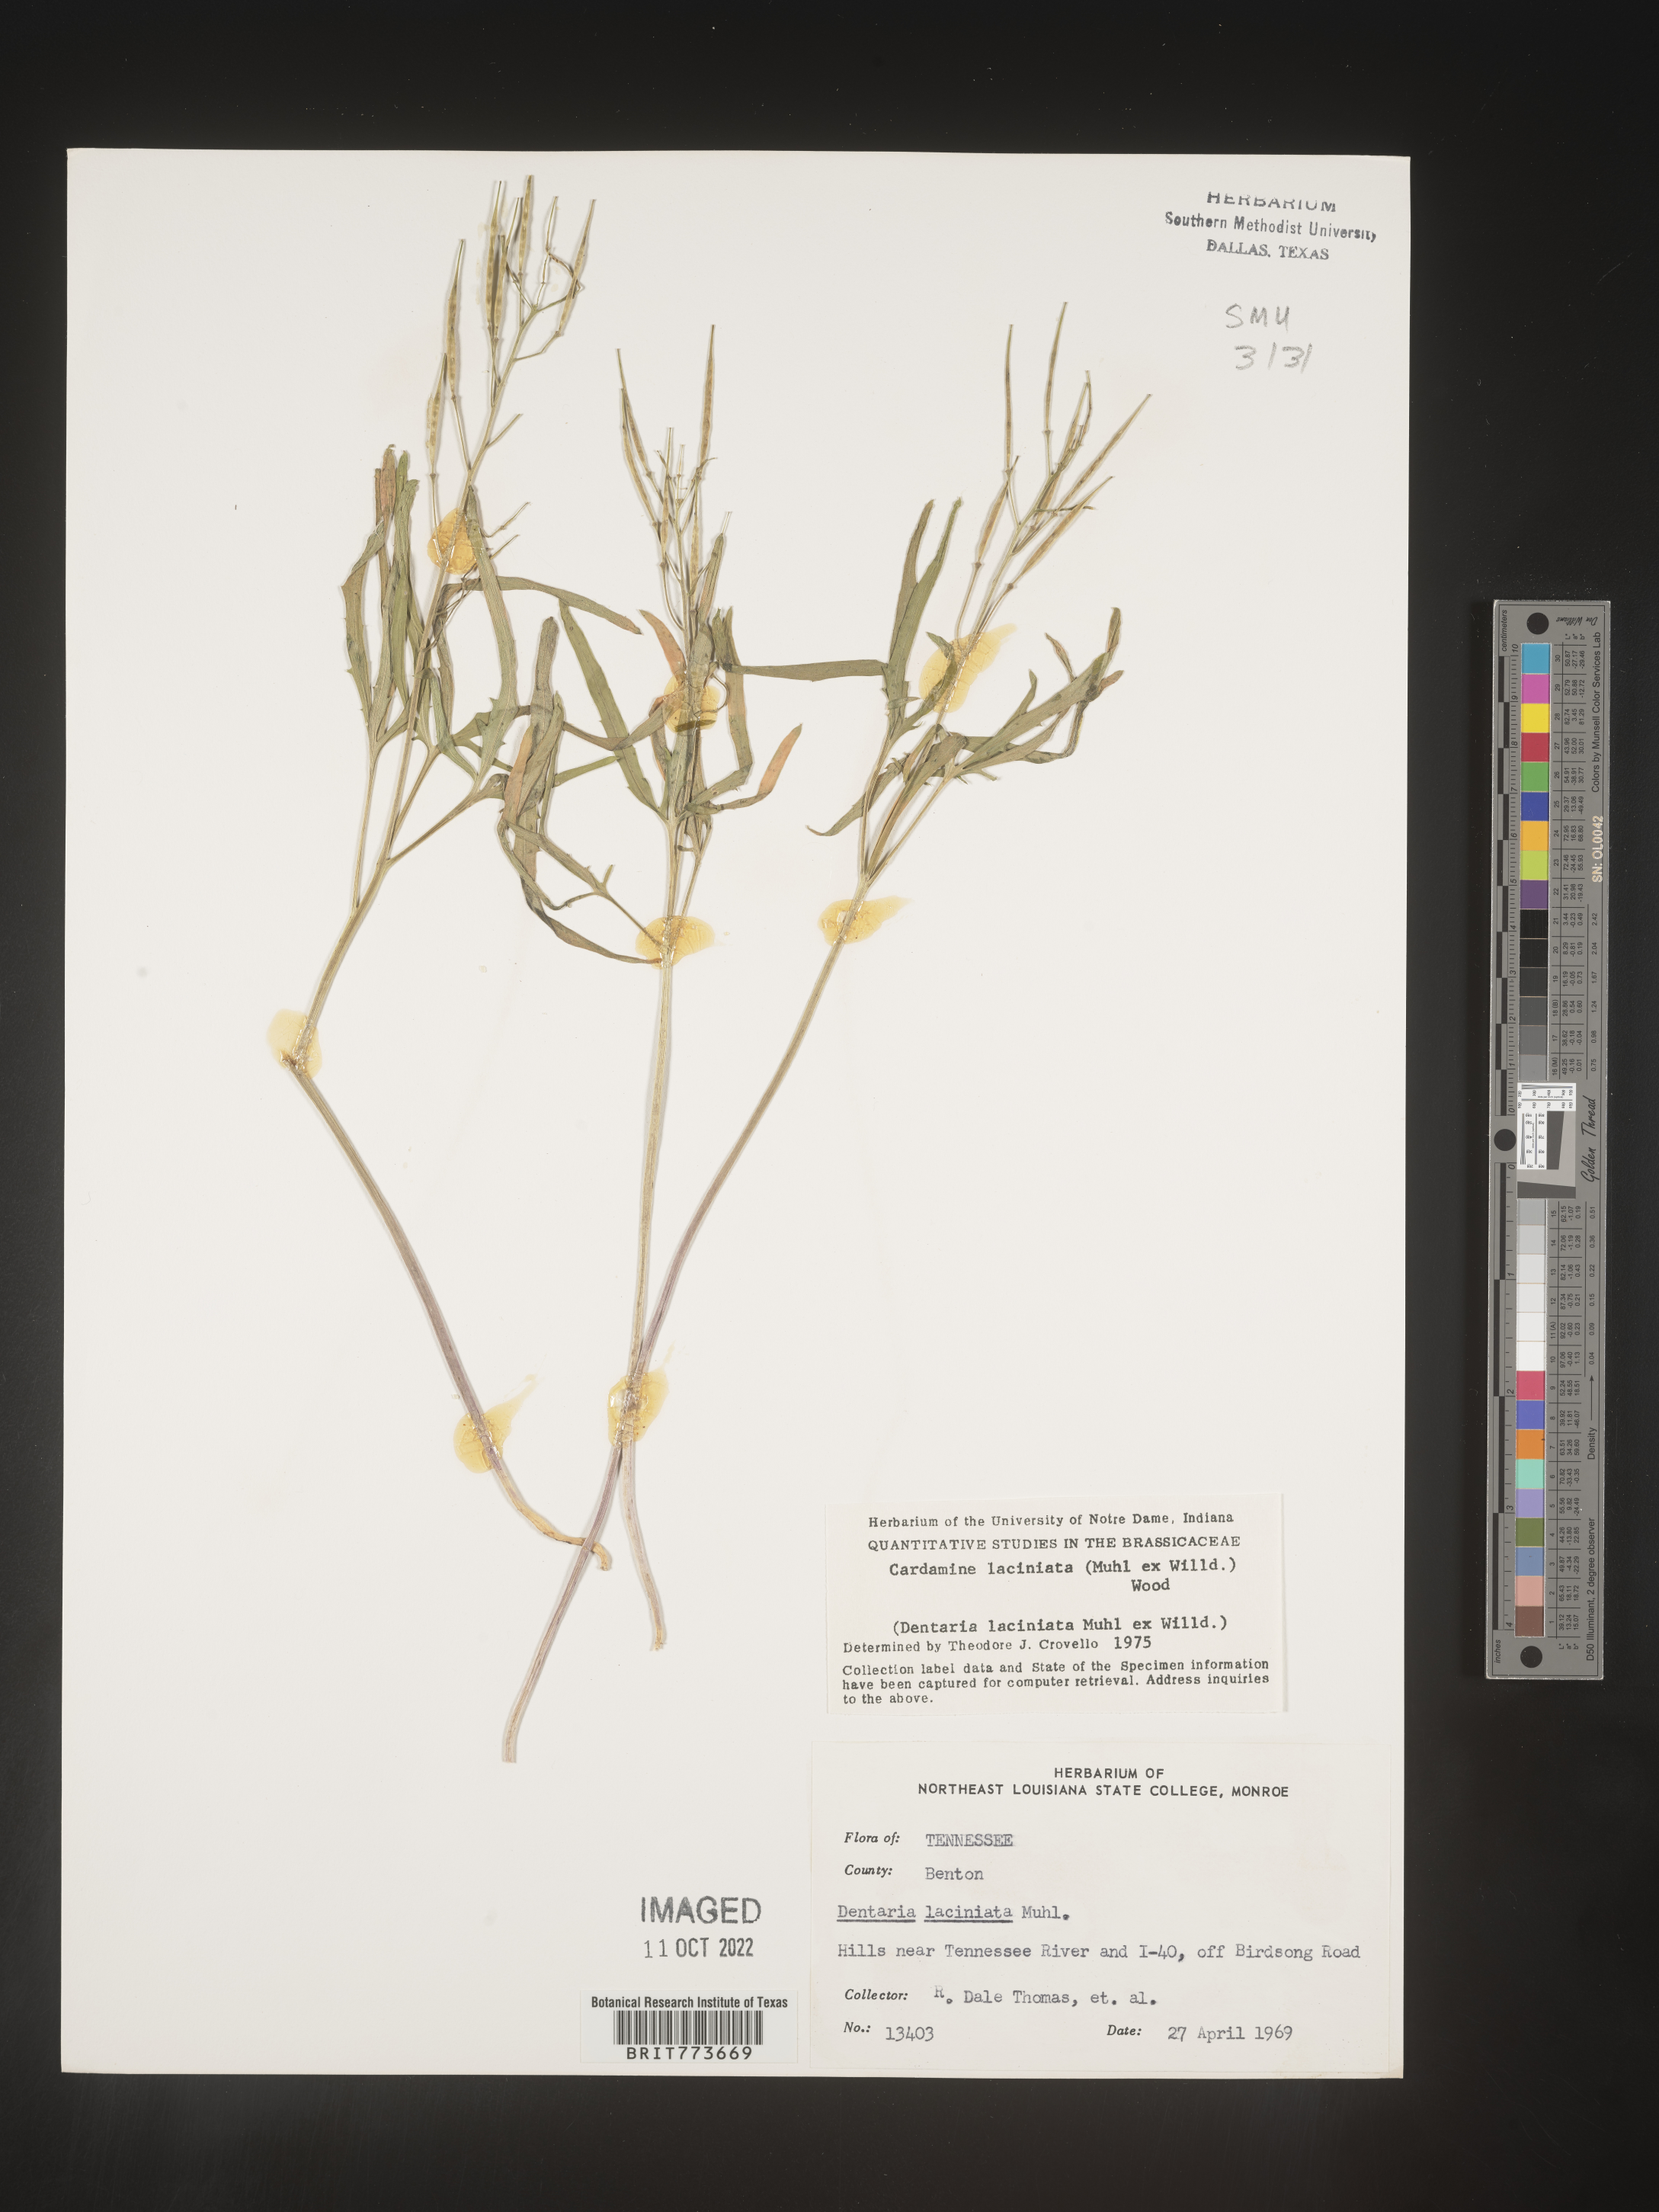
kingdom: Plantae
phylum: Tracheophyta
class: Magnoliopsida
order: Brassicales
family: Brassicaceae
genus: Rorippa
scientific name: Rorippa laciniata
